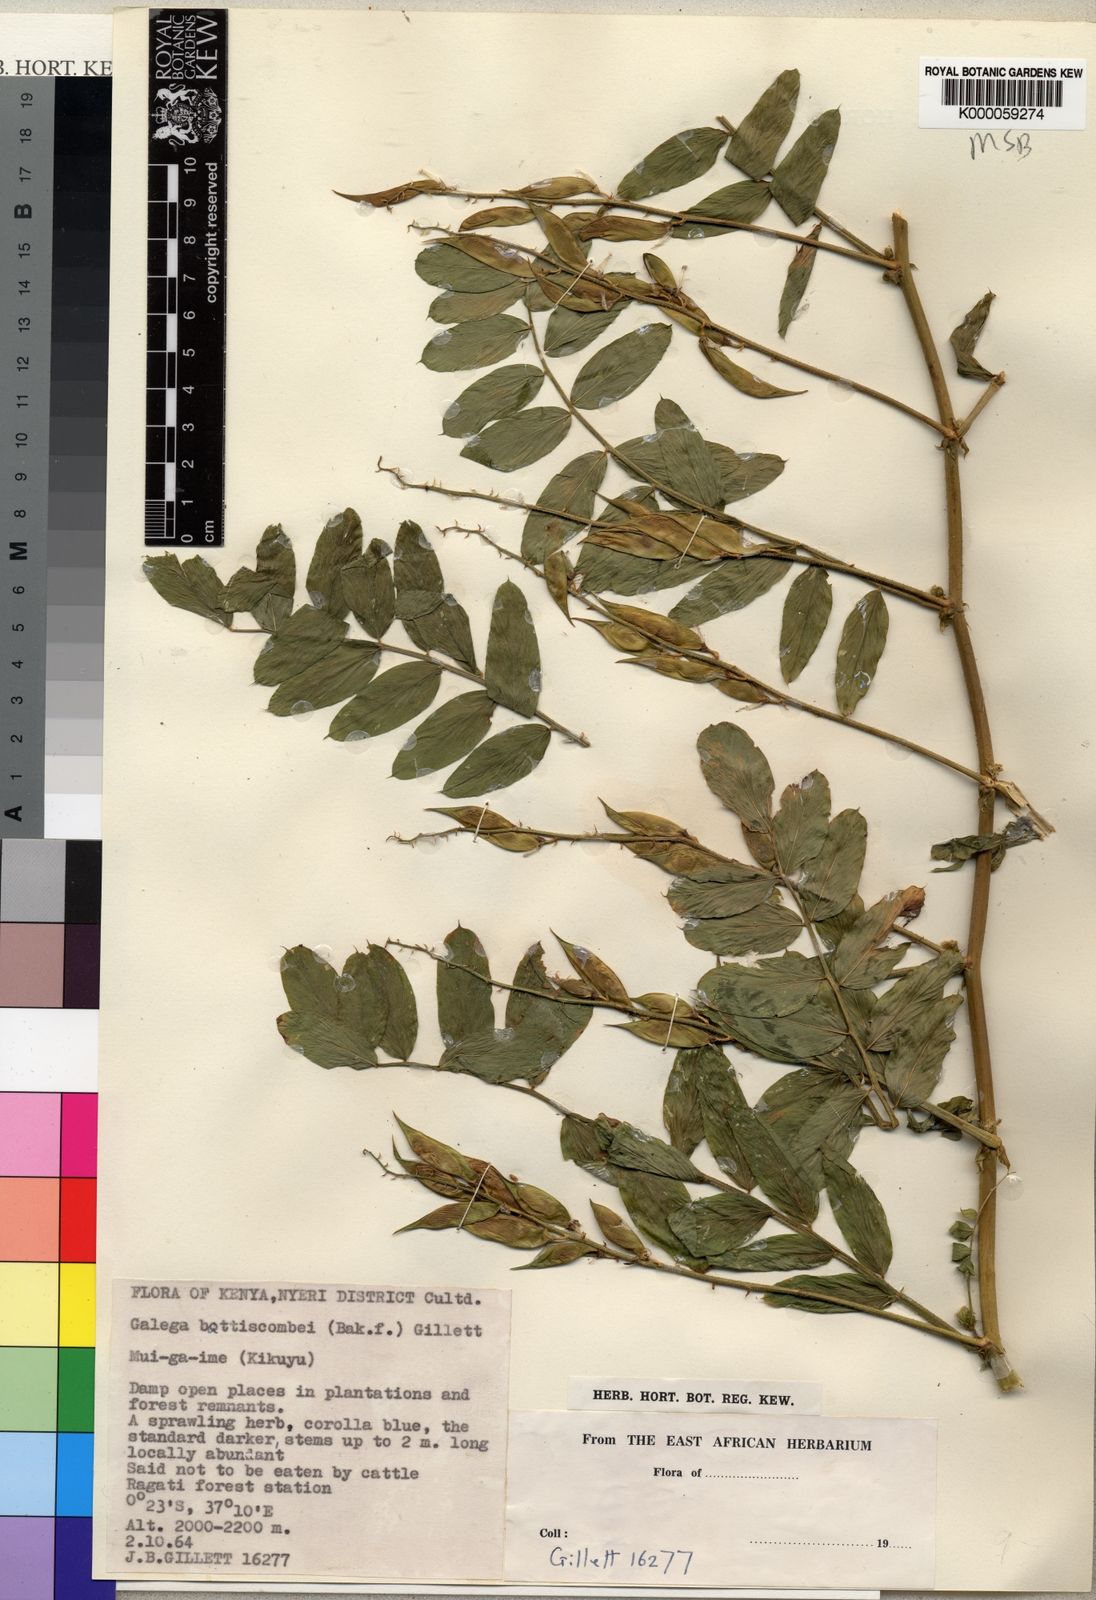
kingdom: Plantae
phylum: Tracheophyta
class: Magnoliopsida
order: Fabales
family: Fabaceae
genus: Galega
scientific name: Galega battiscombei
